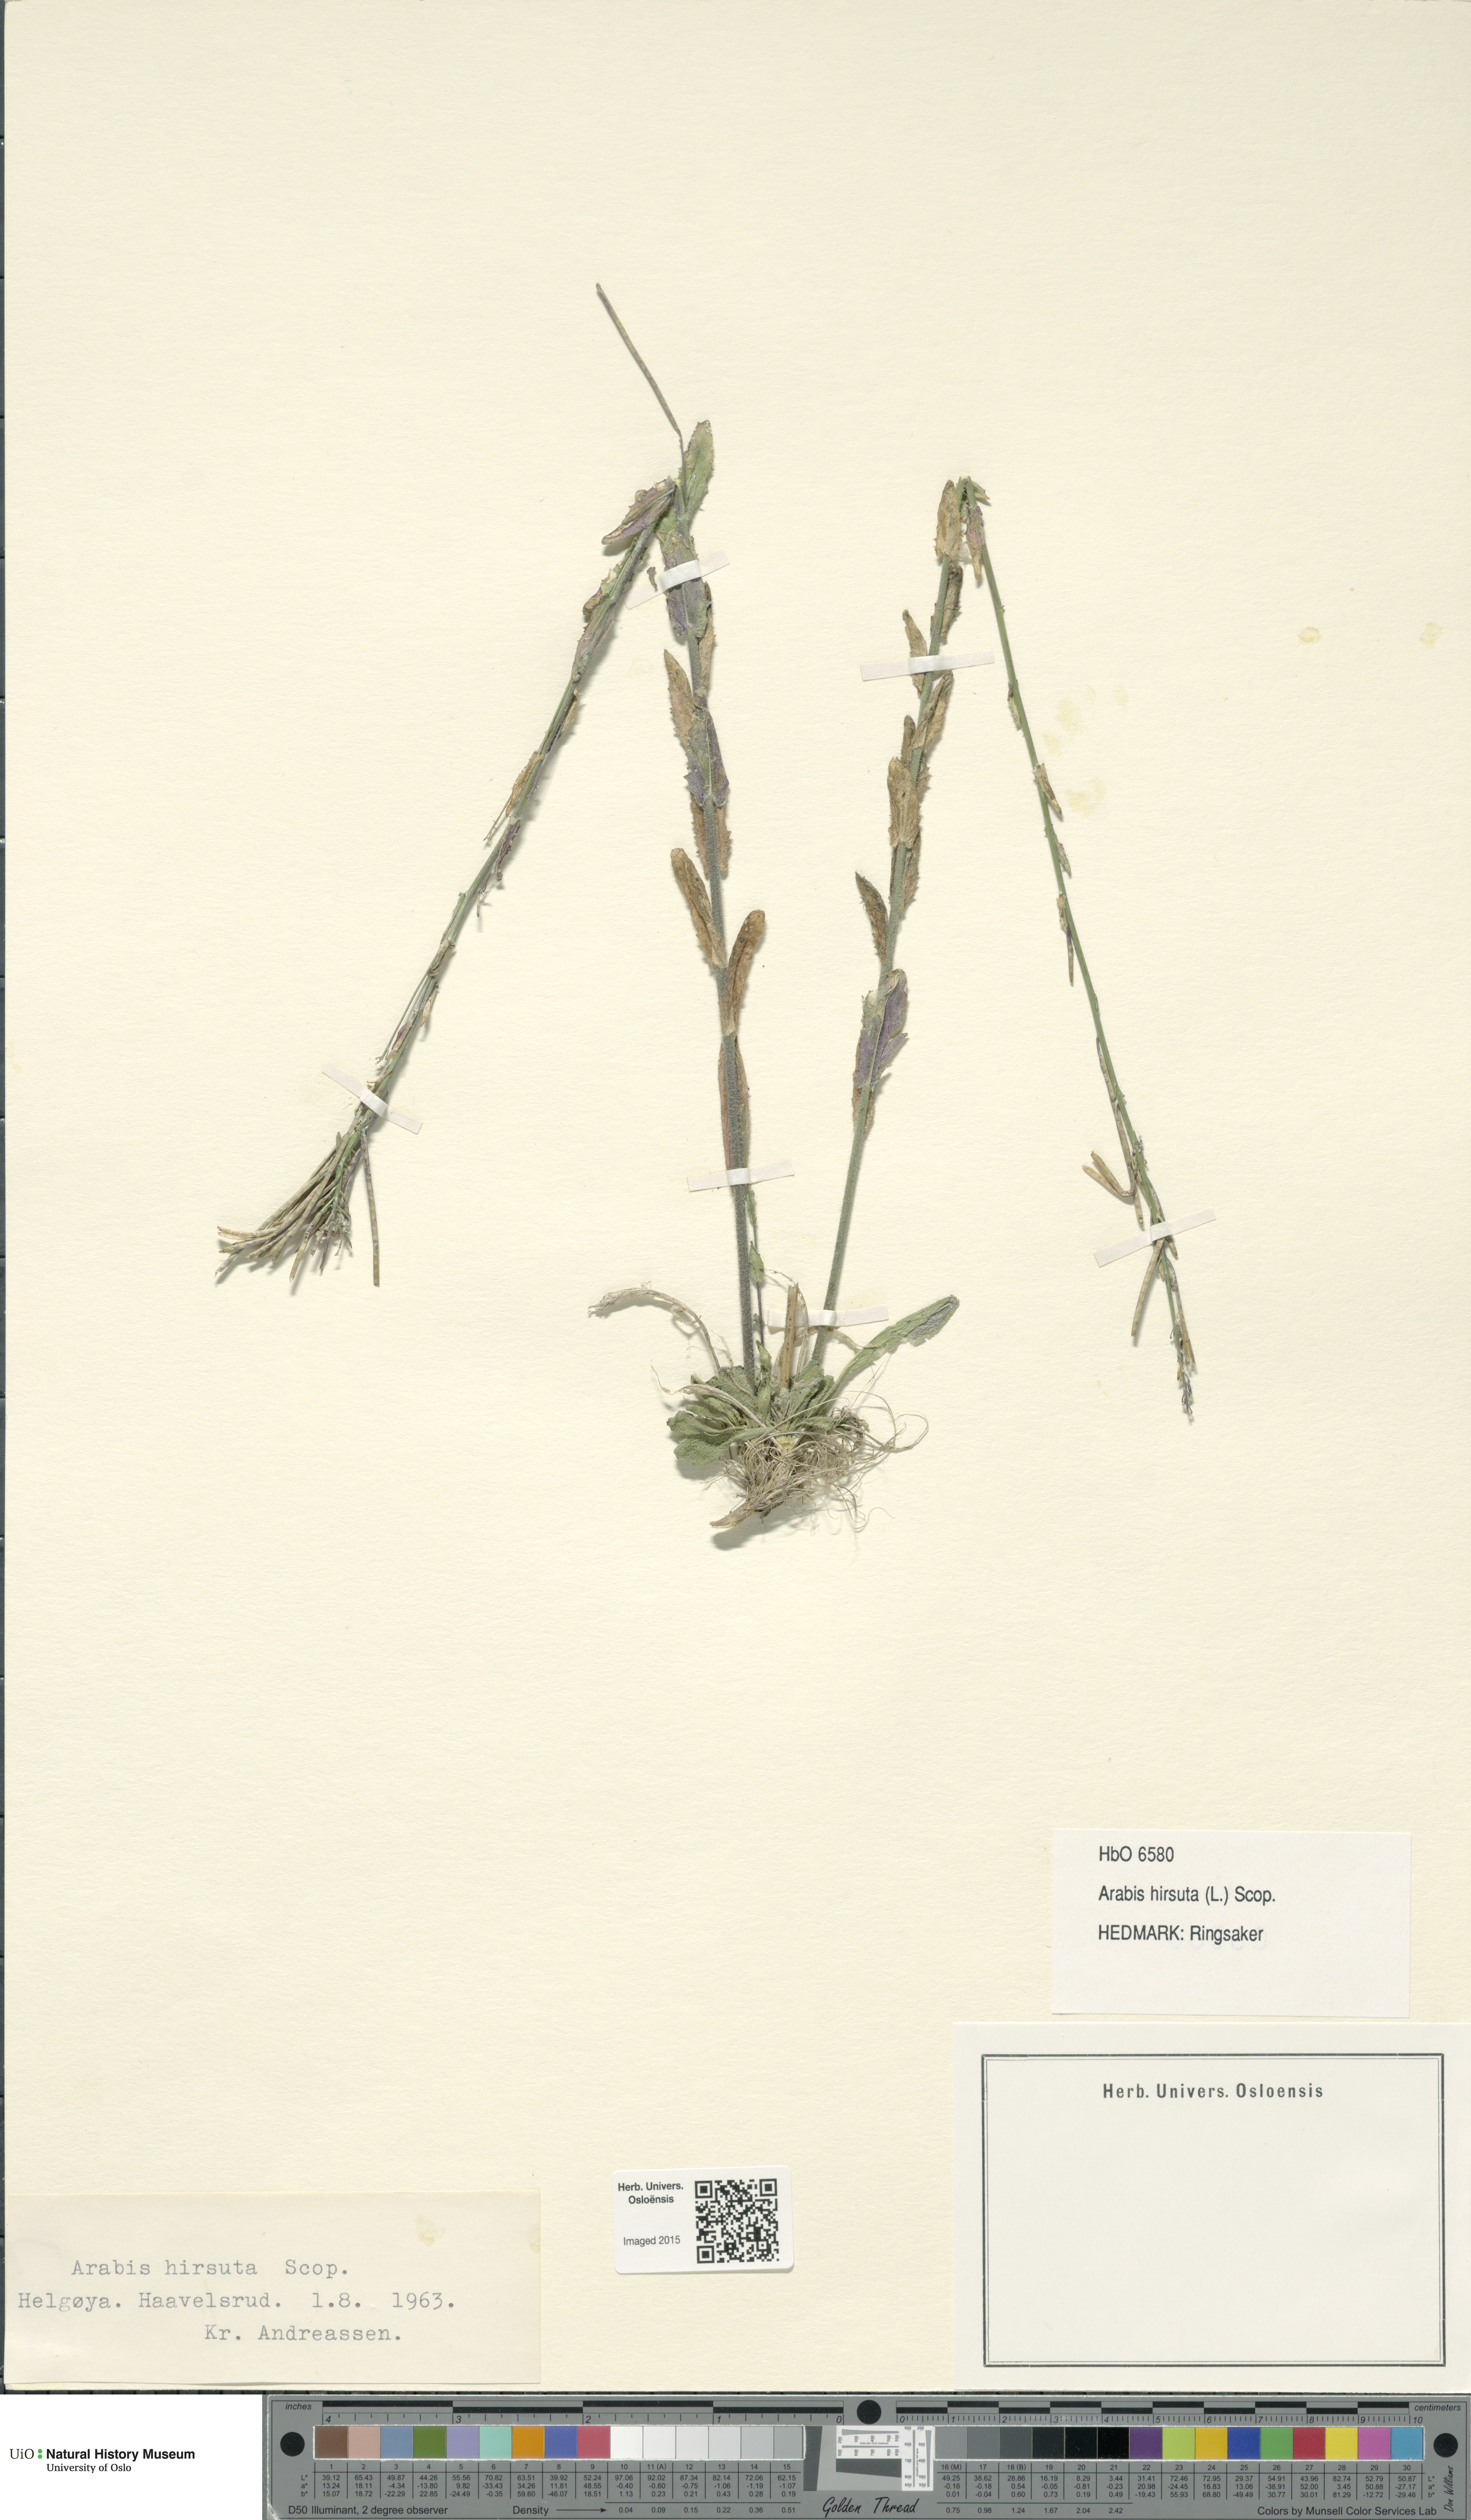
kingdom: Plantae
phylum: Tracheophyta
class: Magnoliopsida
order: Brassicales
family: Brassicaceae
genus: Arabis
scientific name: Arabis hirsuta
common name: Hairy rock-cress
